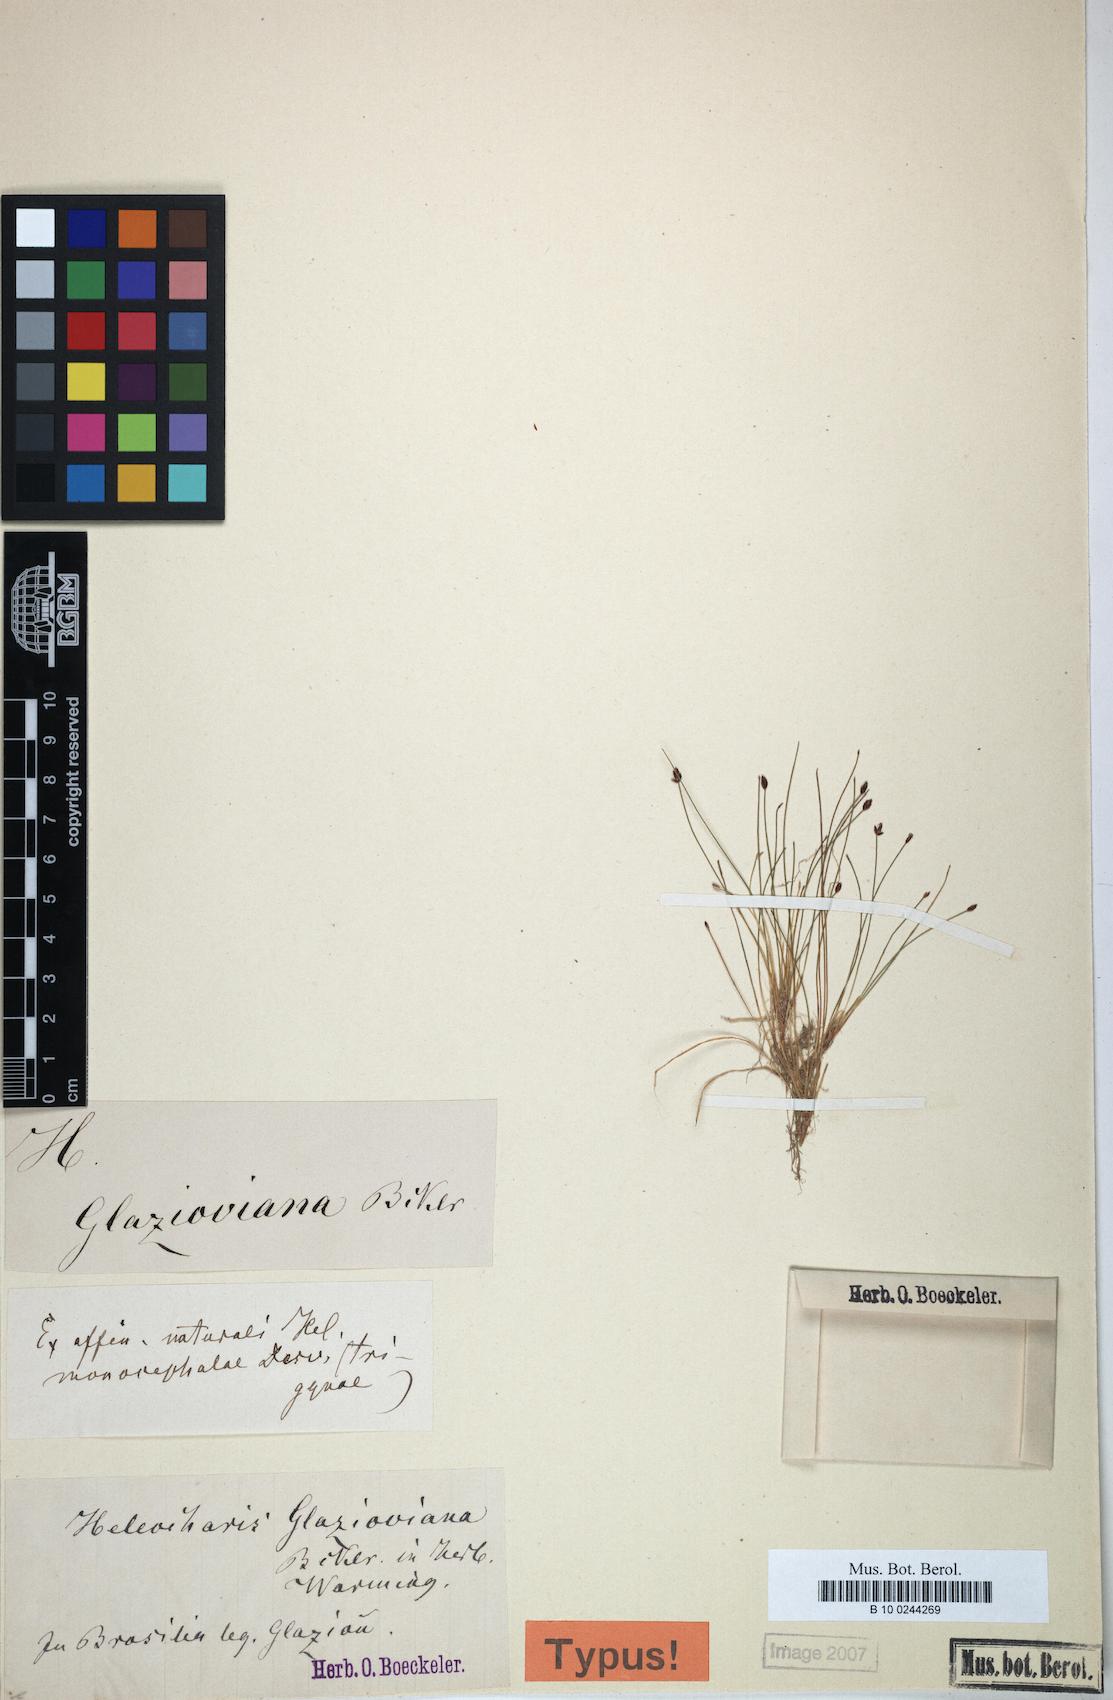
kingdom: Plantae
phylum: Tracheophyta
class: Liliopsida
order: Poales
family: Cyperaceae
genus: Eleocharis
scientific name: Eleocharis maculosa
